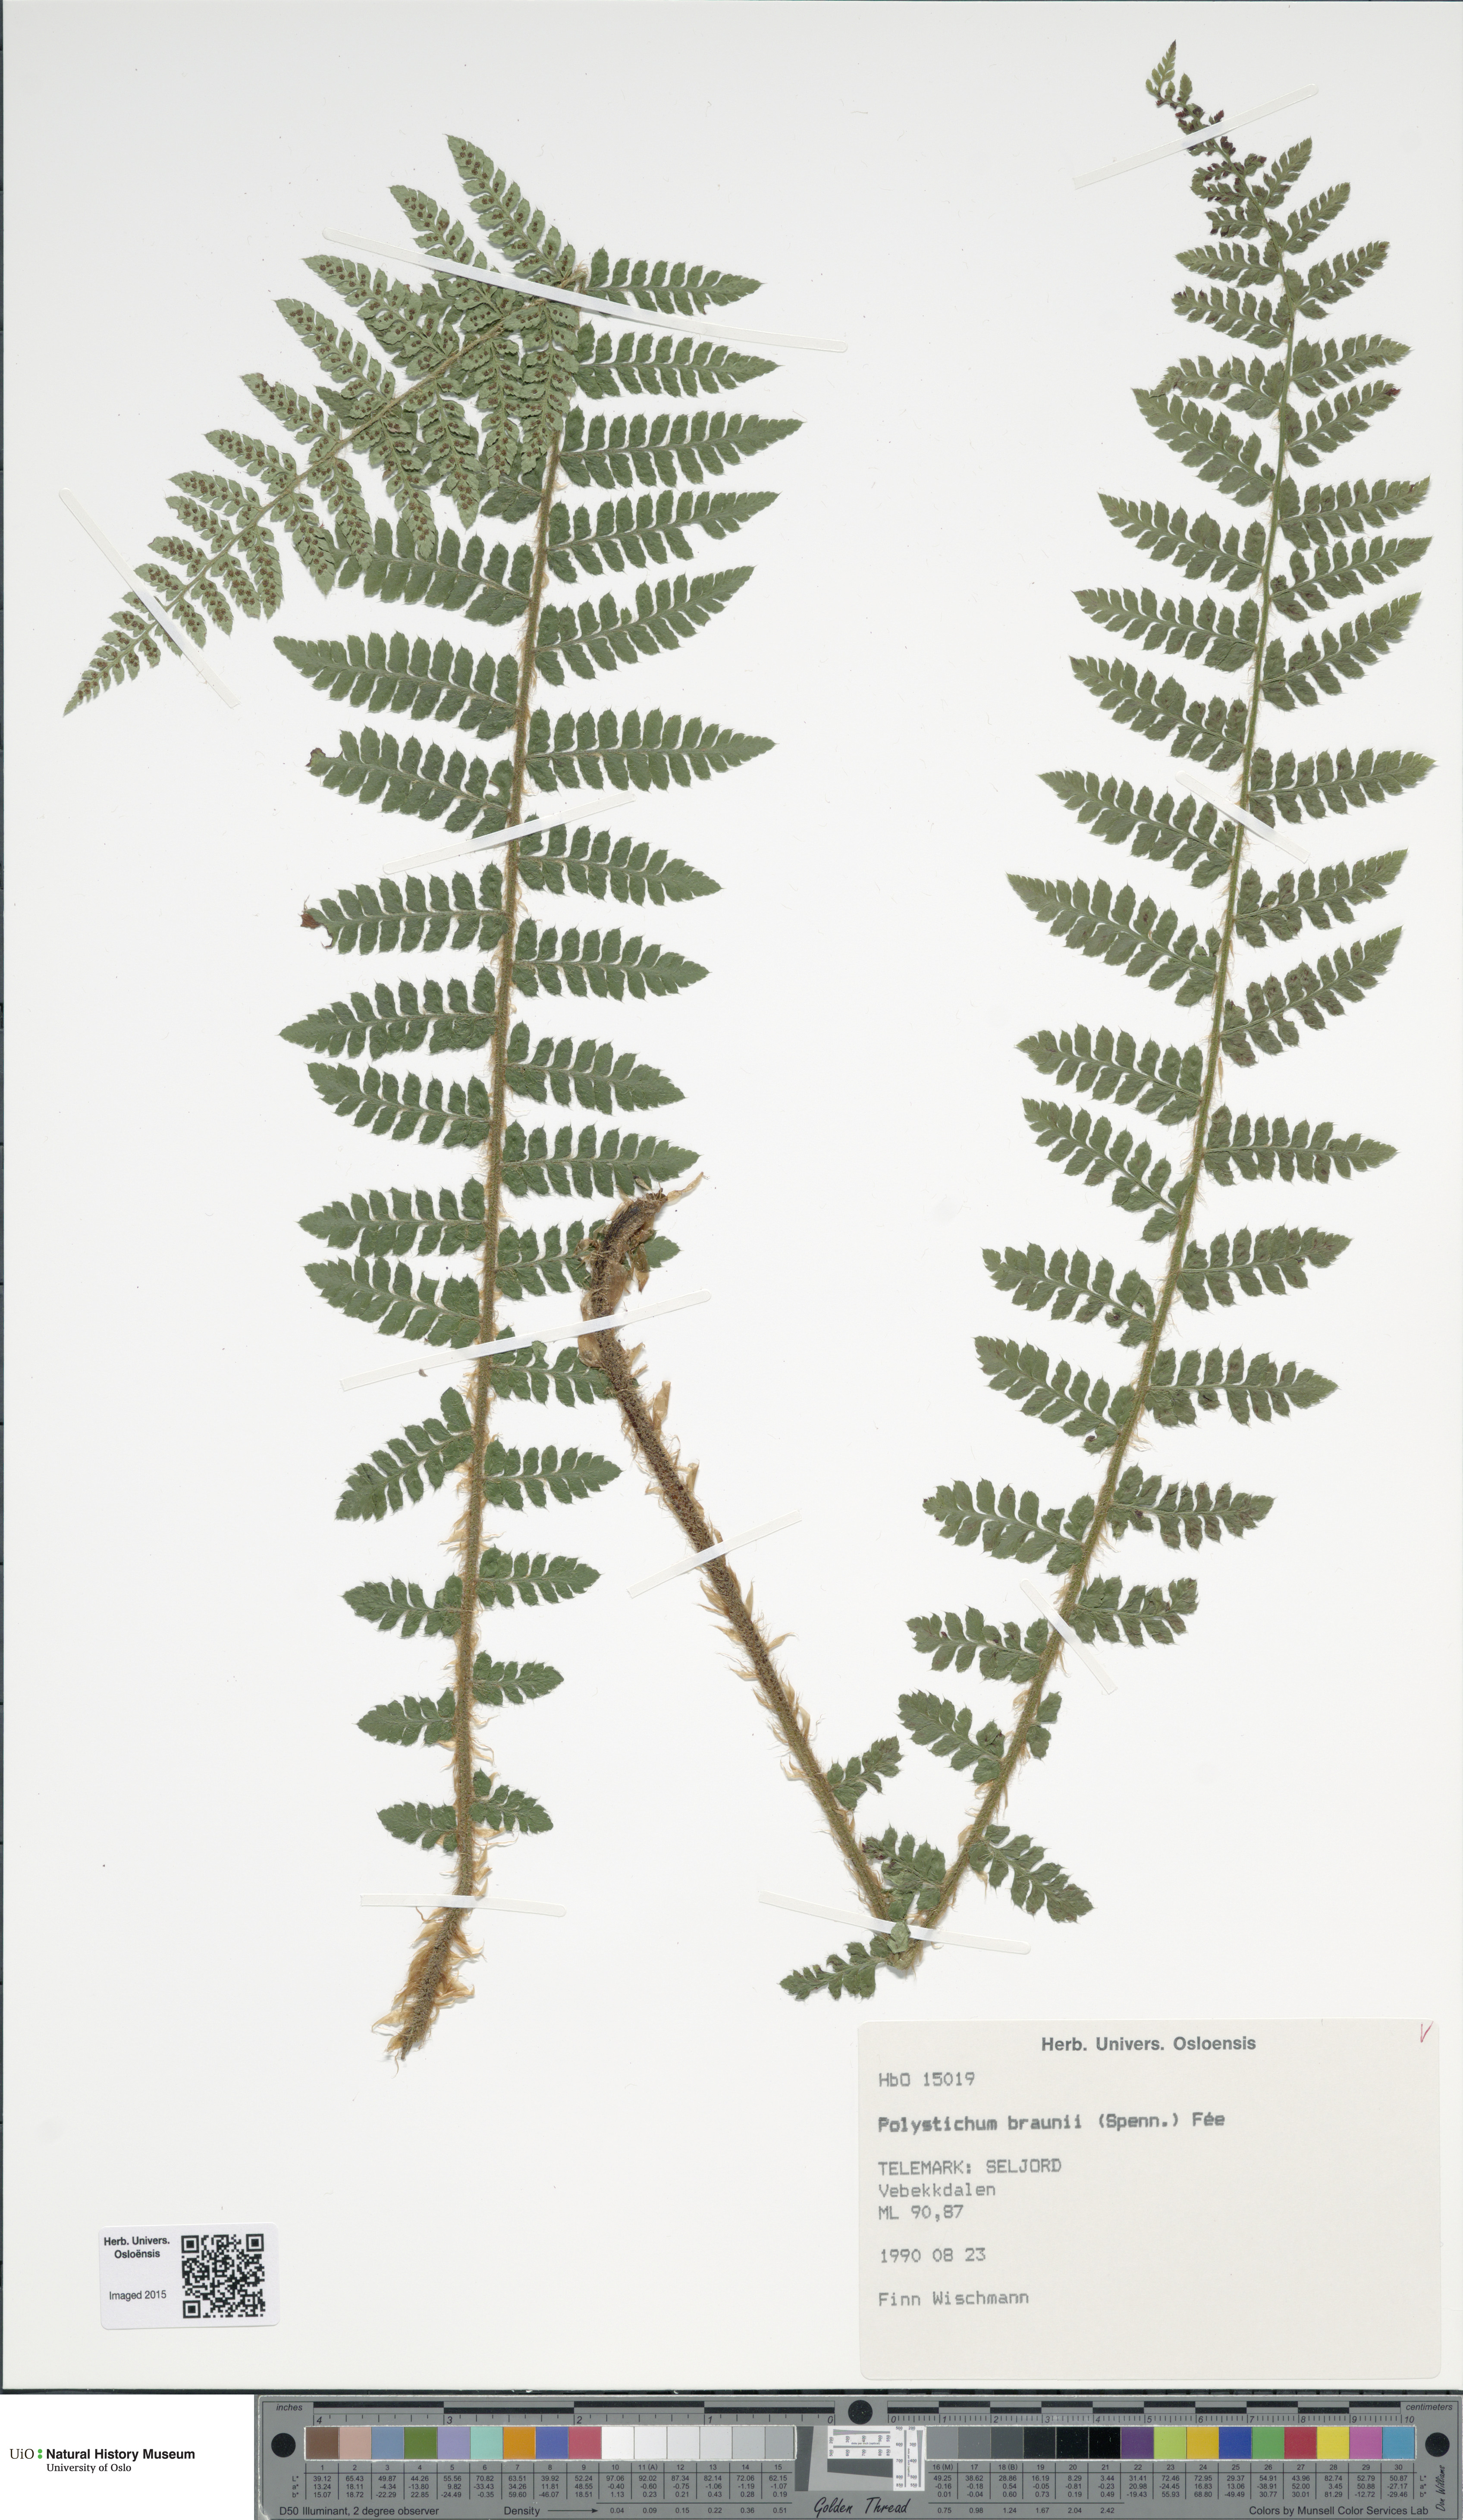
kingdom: Plantae
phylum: Tracheophyta
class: Polypodiopsida
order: Polypodiales
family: Dryopteridaceae
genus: Polystichum
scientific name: Polystichum braunii
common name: Braun's holly fern
